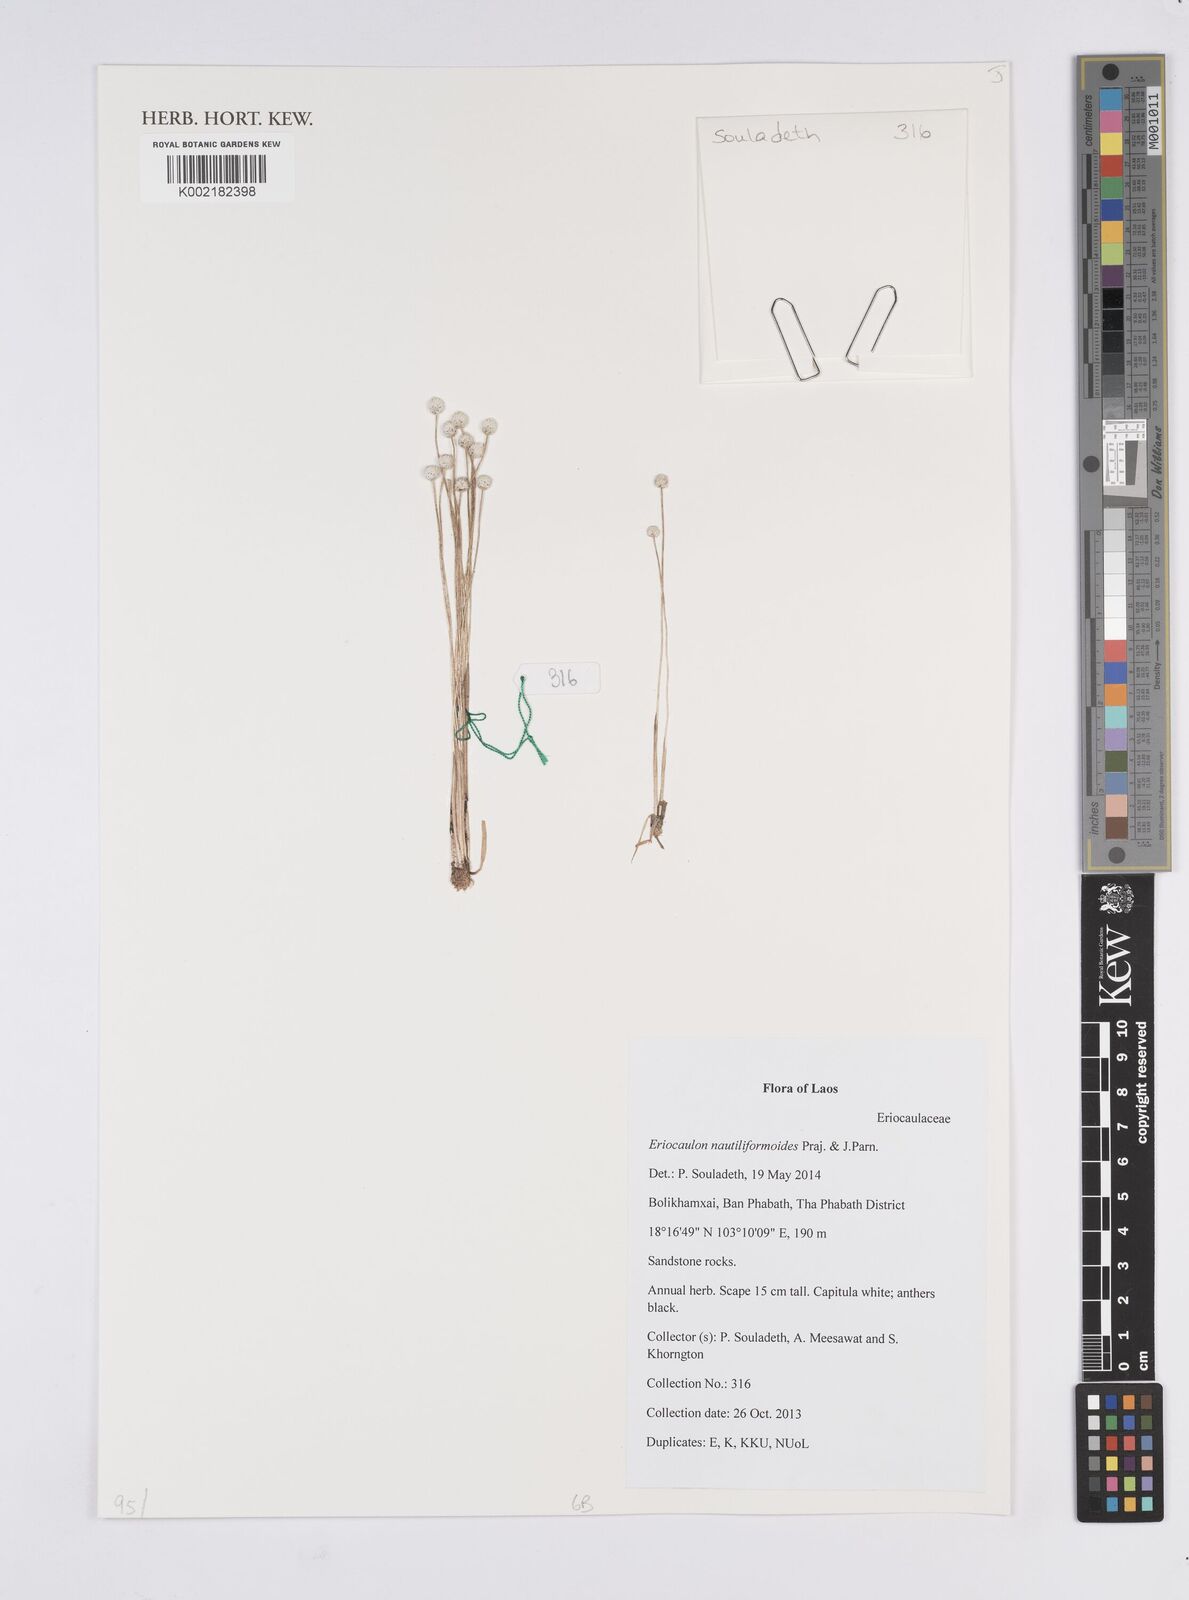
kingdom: Plantae
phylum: Tracheophyta
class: Liliopsida
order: Poales
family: Eriocaulaceae
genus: Eriocaulon
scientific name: Eriocaulon nautiliformoides
